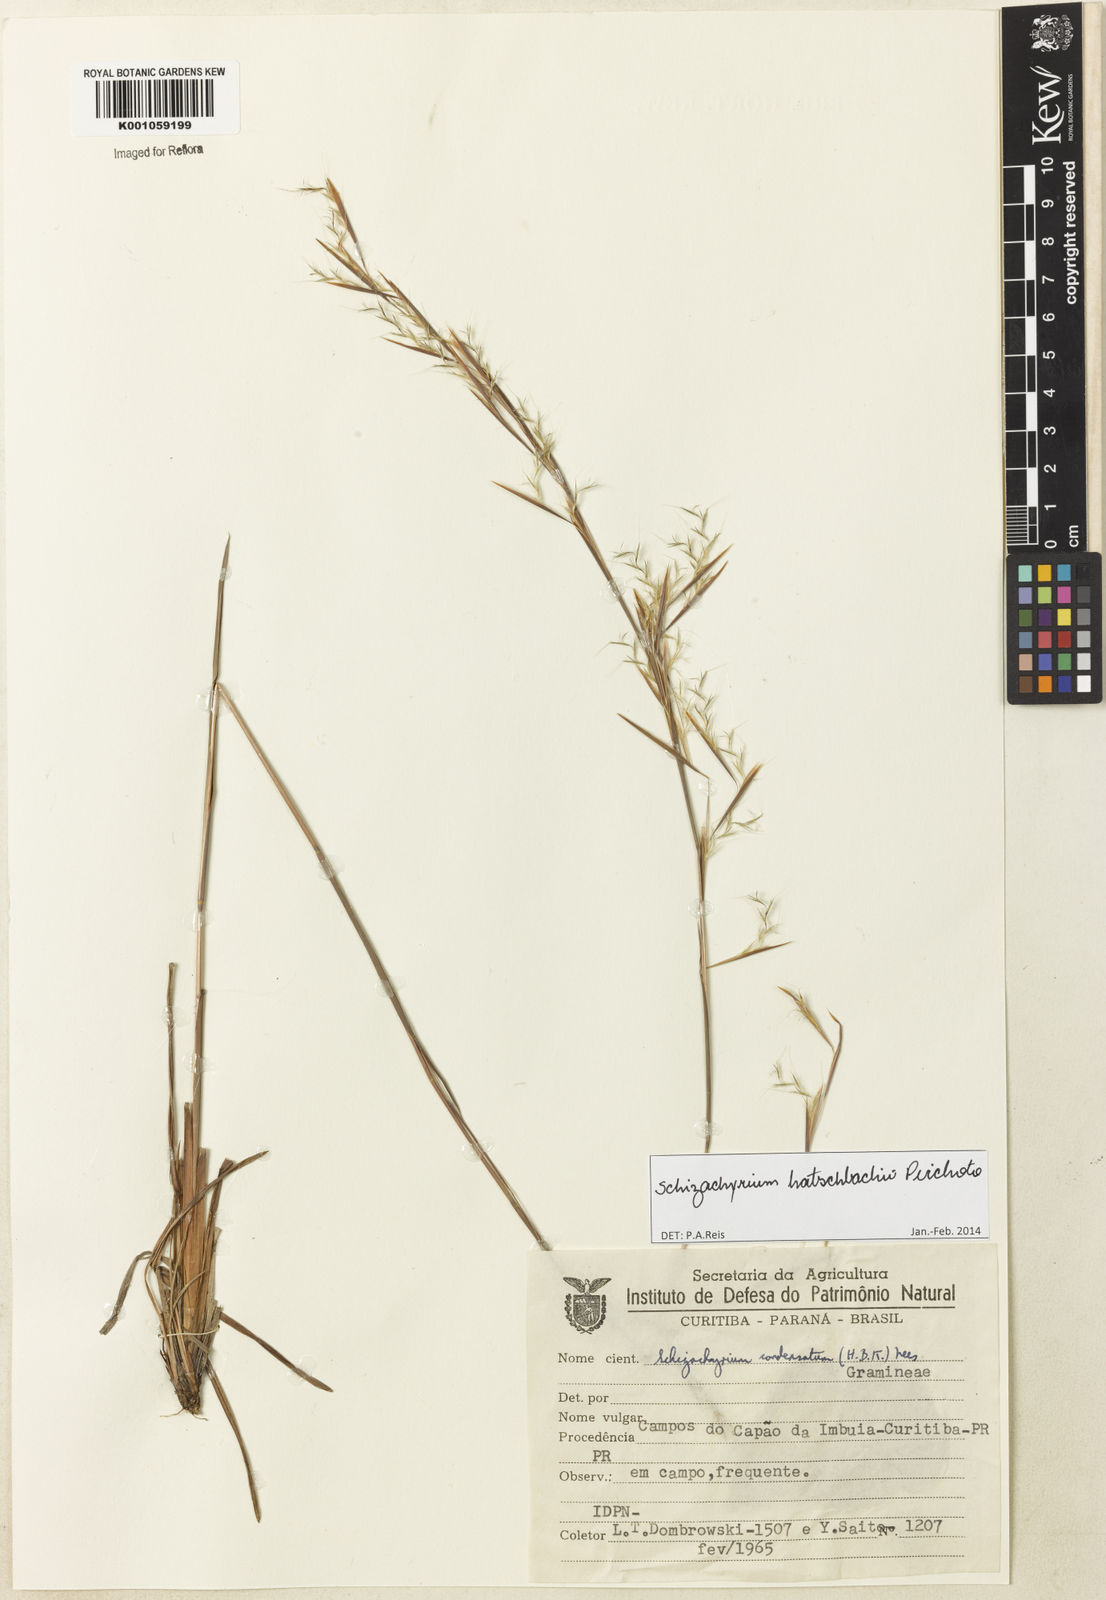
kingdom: Plantae
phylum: Tracheophyta
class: Liliopsida
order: Poales
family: Poaceae
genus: Schizachyrium
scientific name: Schizachyrium hatschbachii
